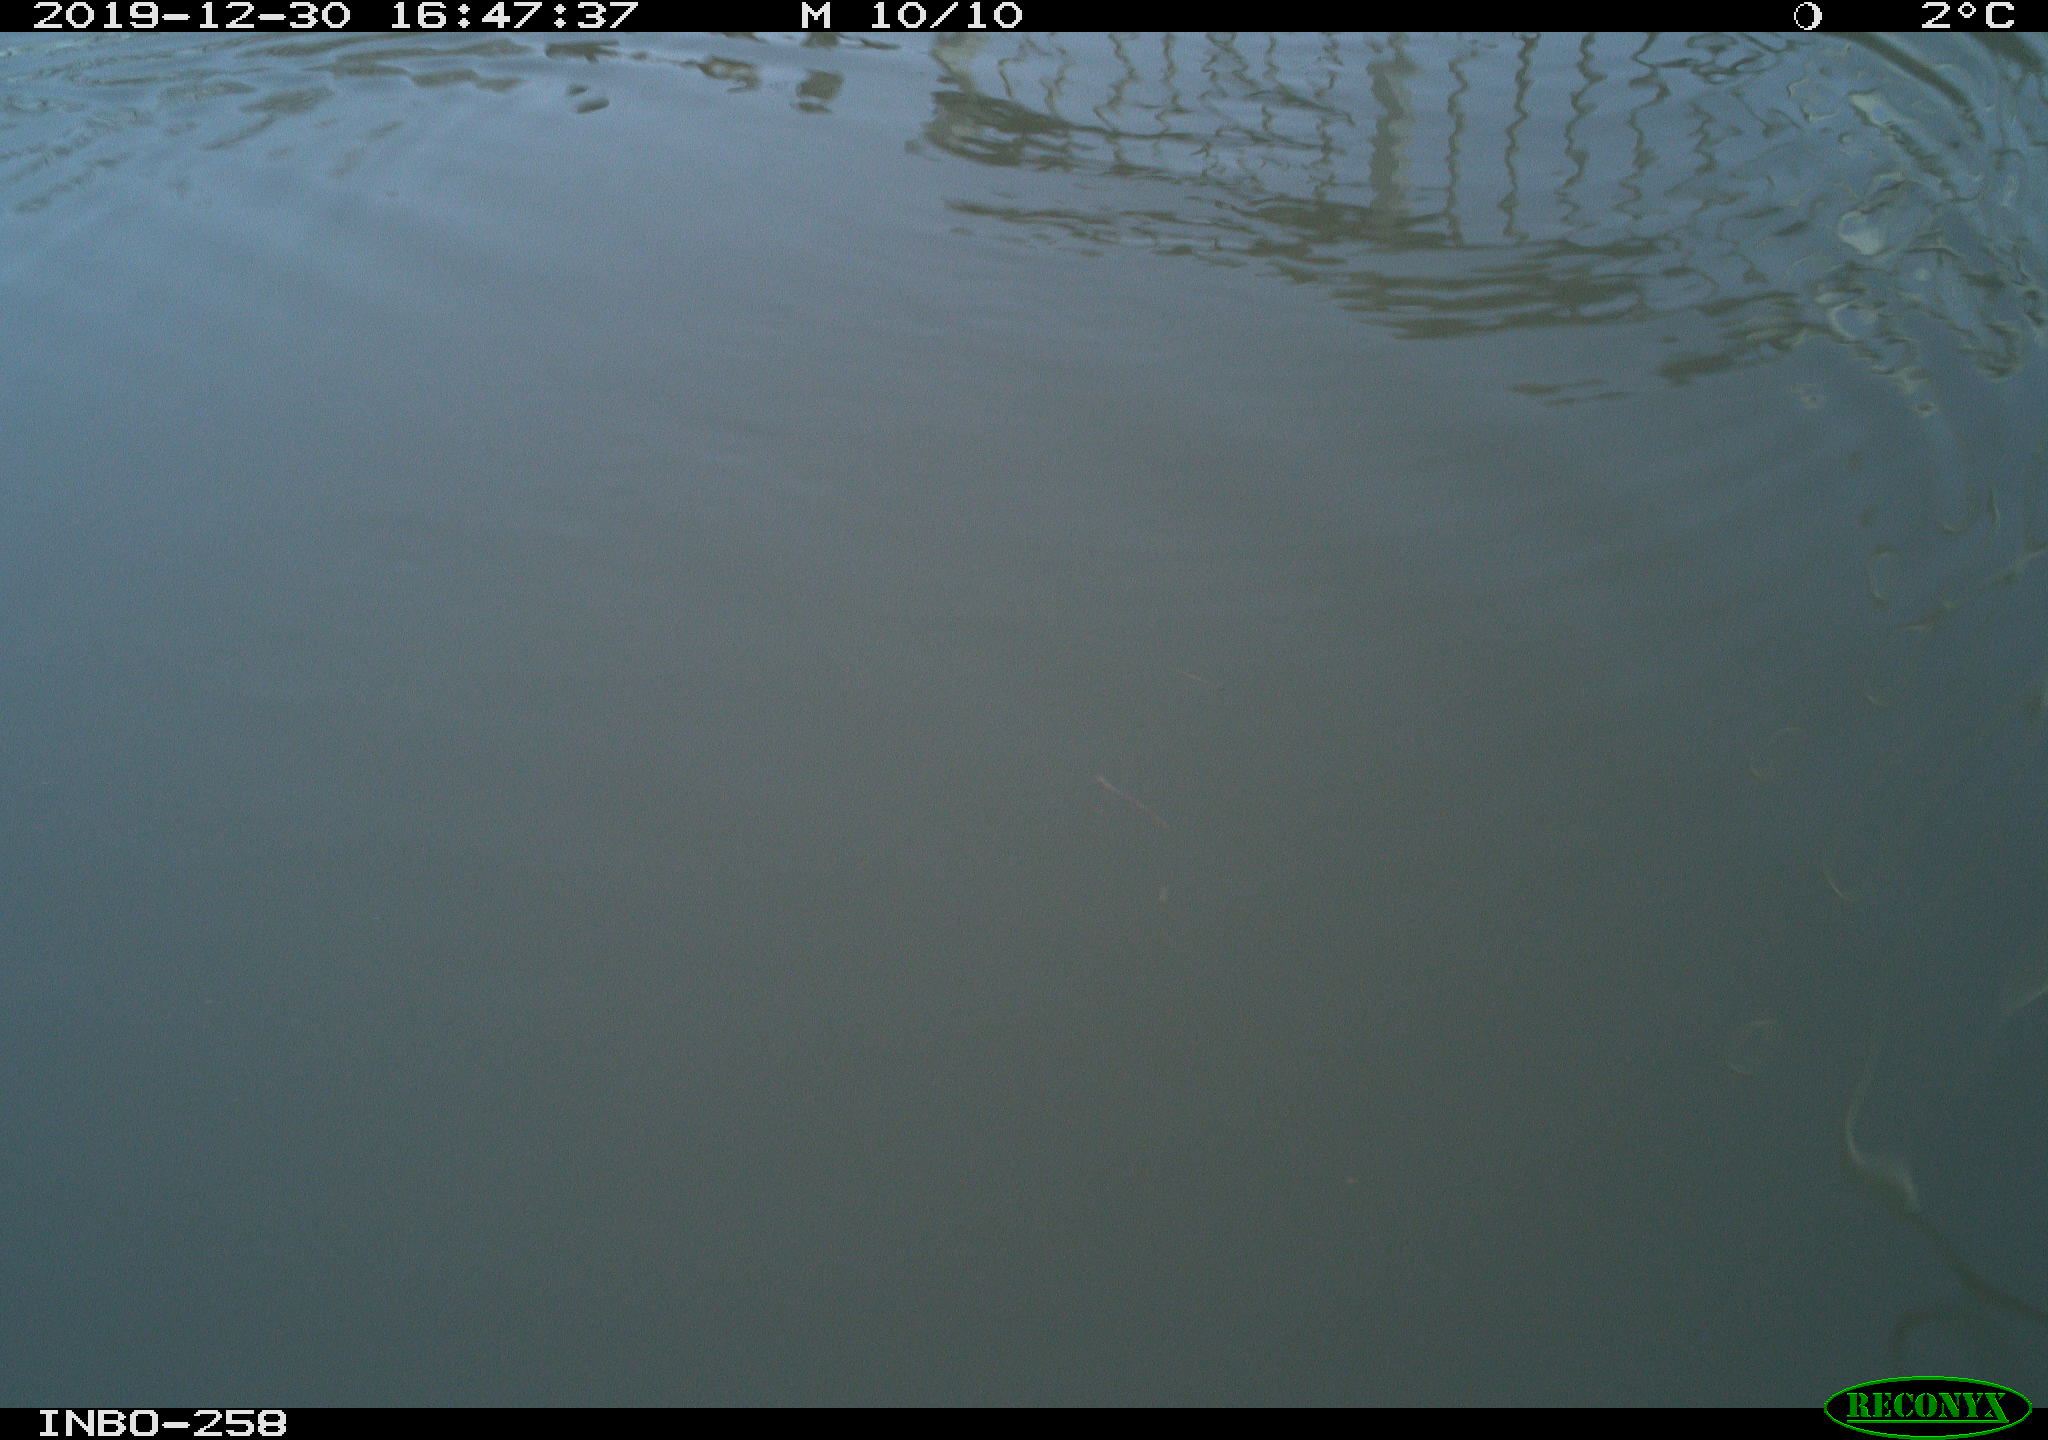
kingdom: Animalia
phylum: Chordata
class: Aves
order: Gruiformes
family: Rallidae
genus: Gallinula
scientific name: Gallinula chloropus
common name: Common moorhen
